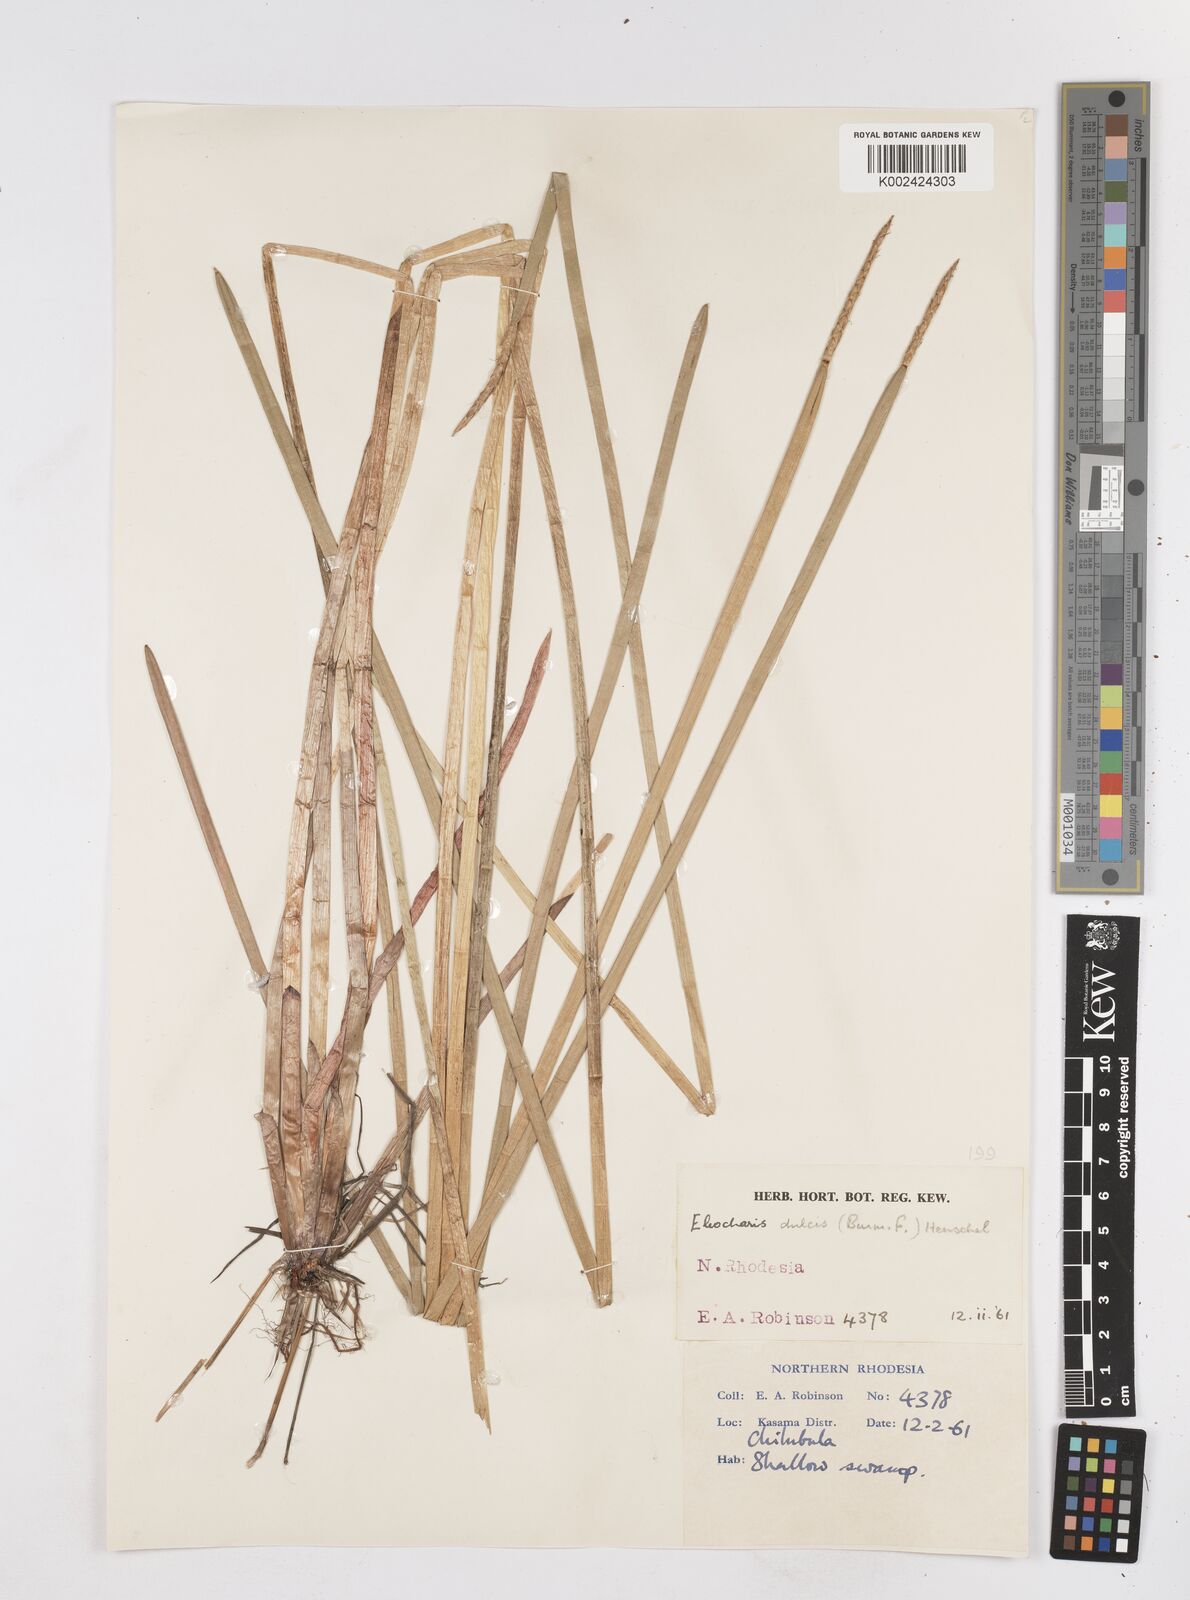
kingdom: Plantae
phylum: Tracheophyta
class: Liliopsida
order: Poales
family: Cyperaceae
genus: Eleocharis
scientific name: Eleocharis dulcis
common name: Chinese water chestnut
